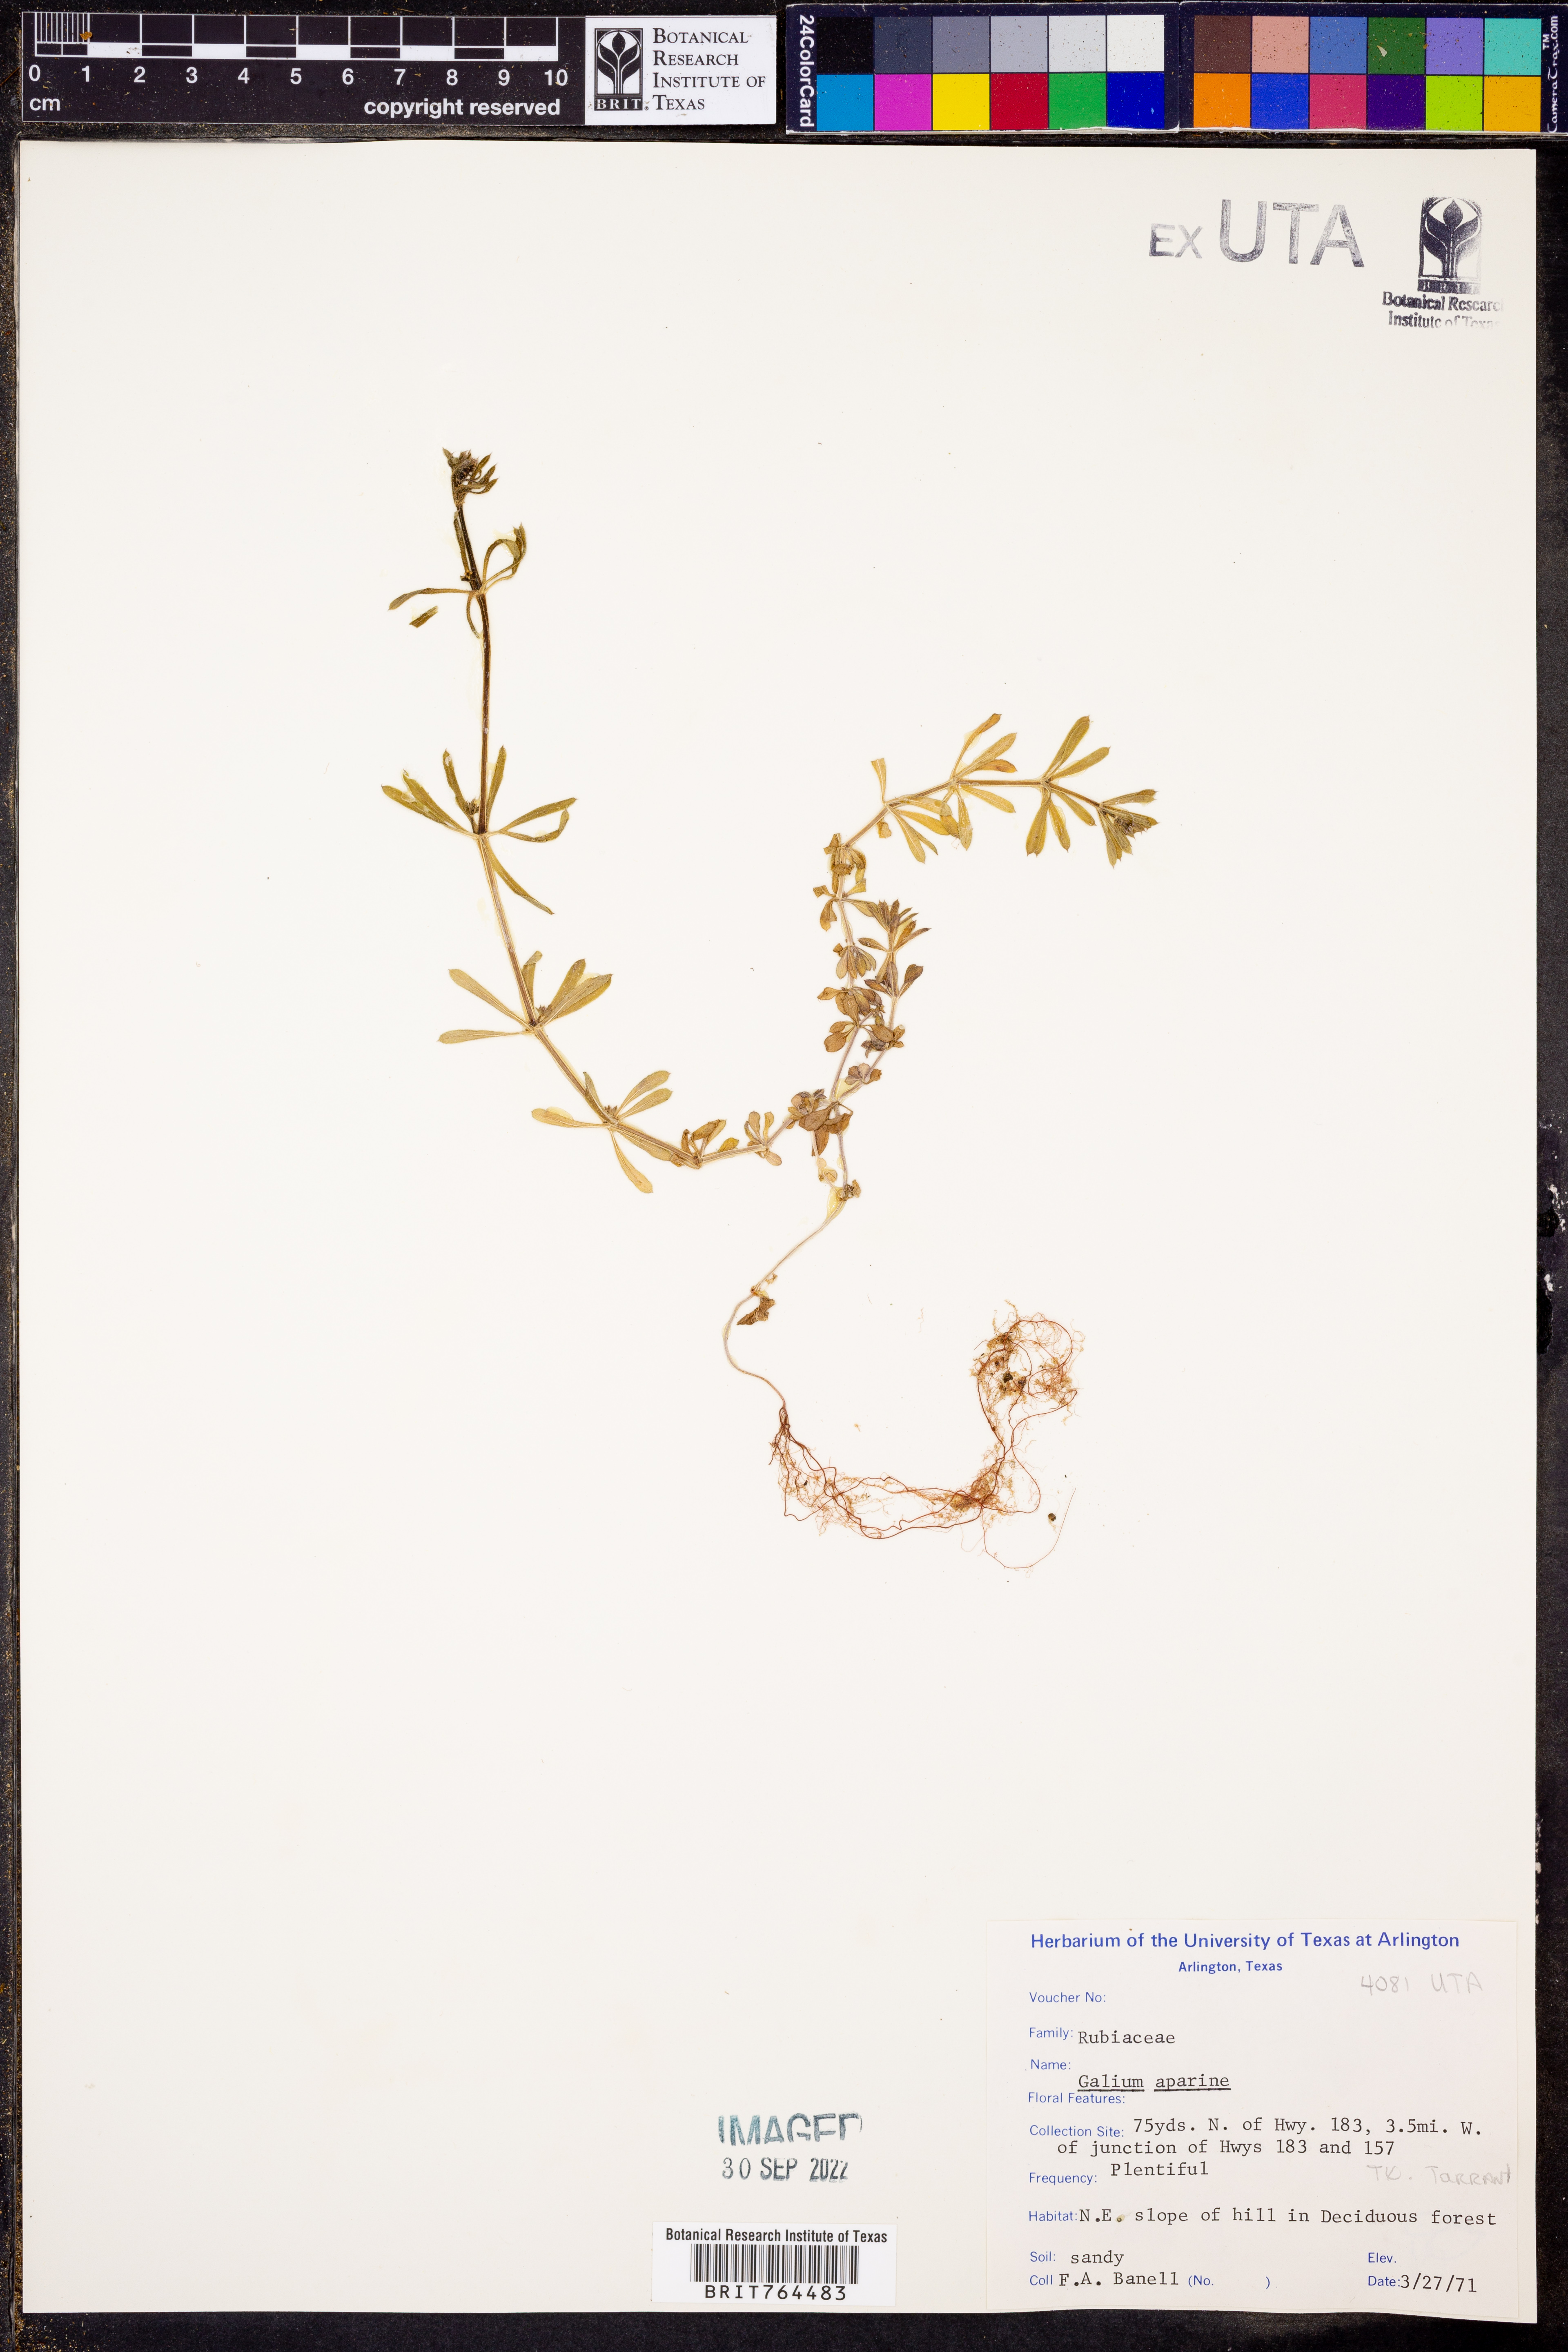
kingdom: Plantae
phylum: Tracheophyta
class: Magnoliopsida
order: Gentianales
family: Rubiaceae
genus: Galium
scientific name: Galium aparine
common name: Cleavers
